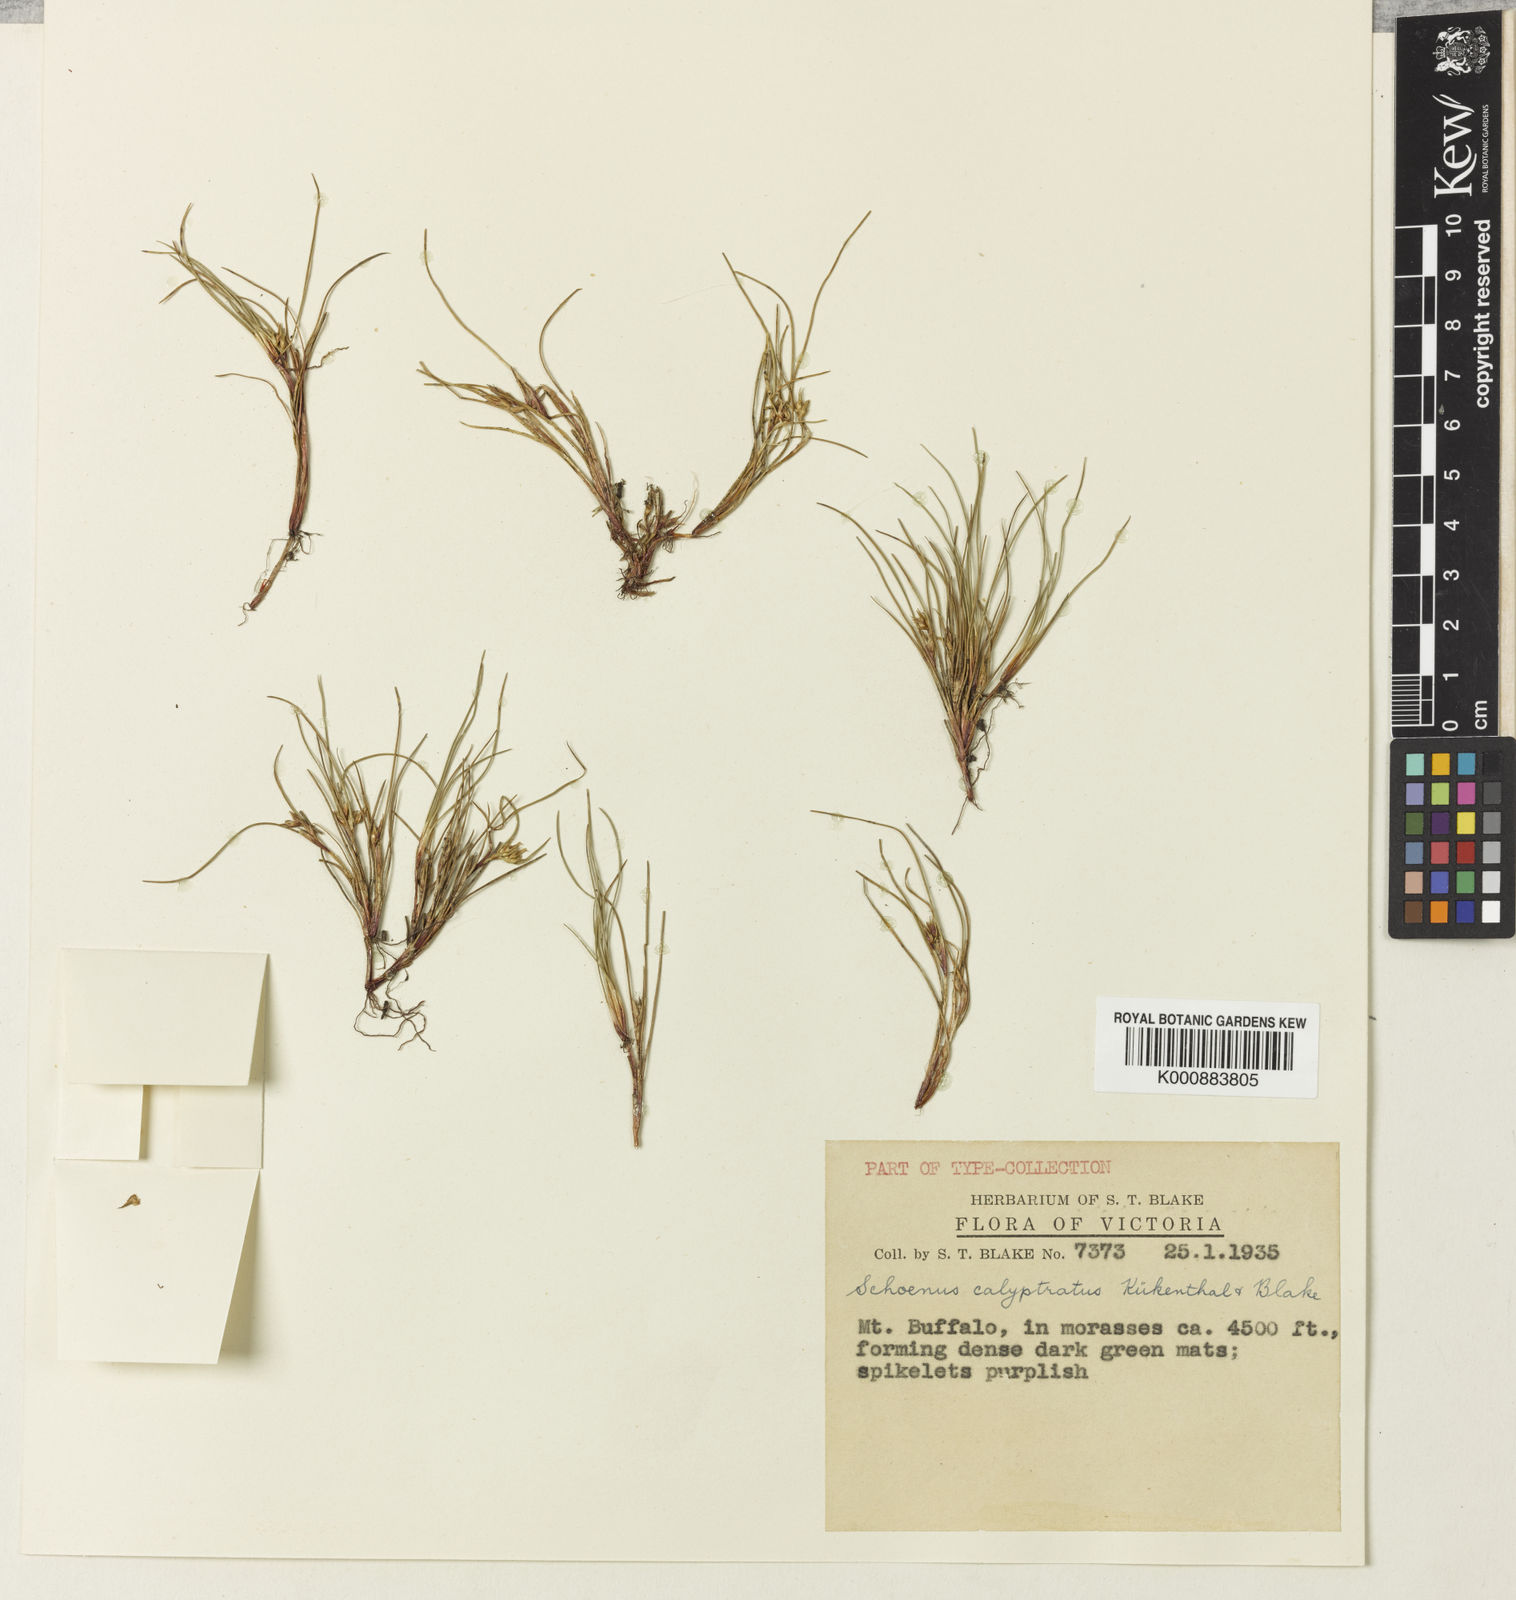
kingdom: Plantae
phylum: Tracheophyta
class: Liliopsida
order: Poales
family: Cyperaceae
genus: Schoenus
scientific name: Schoenus
